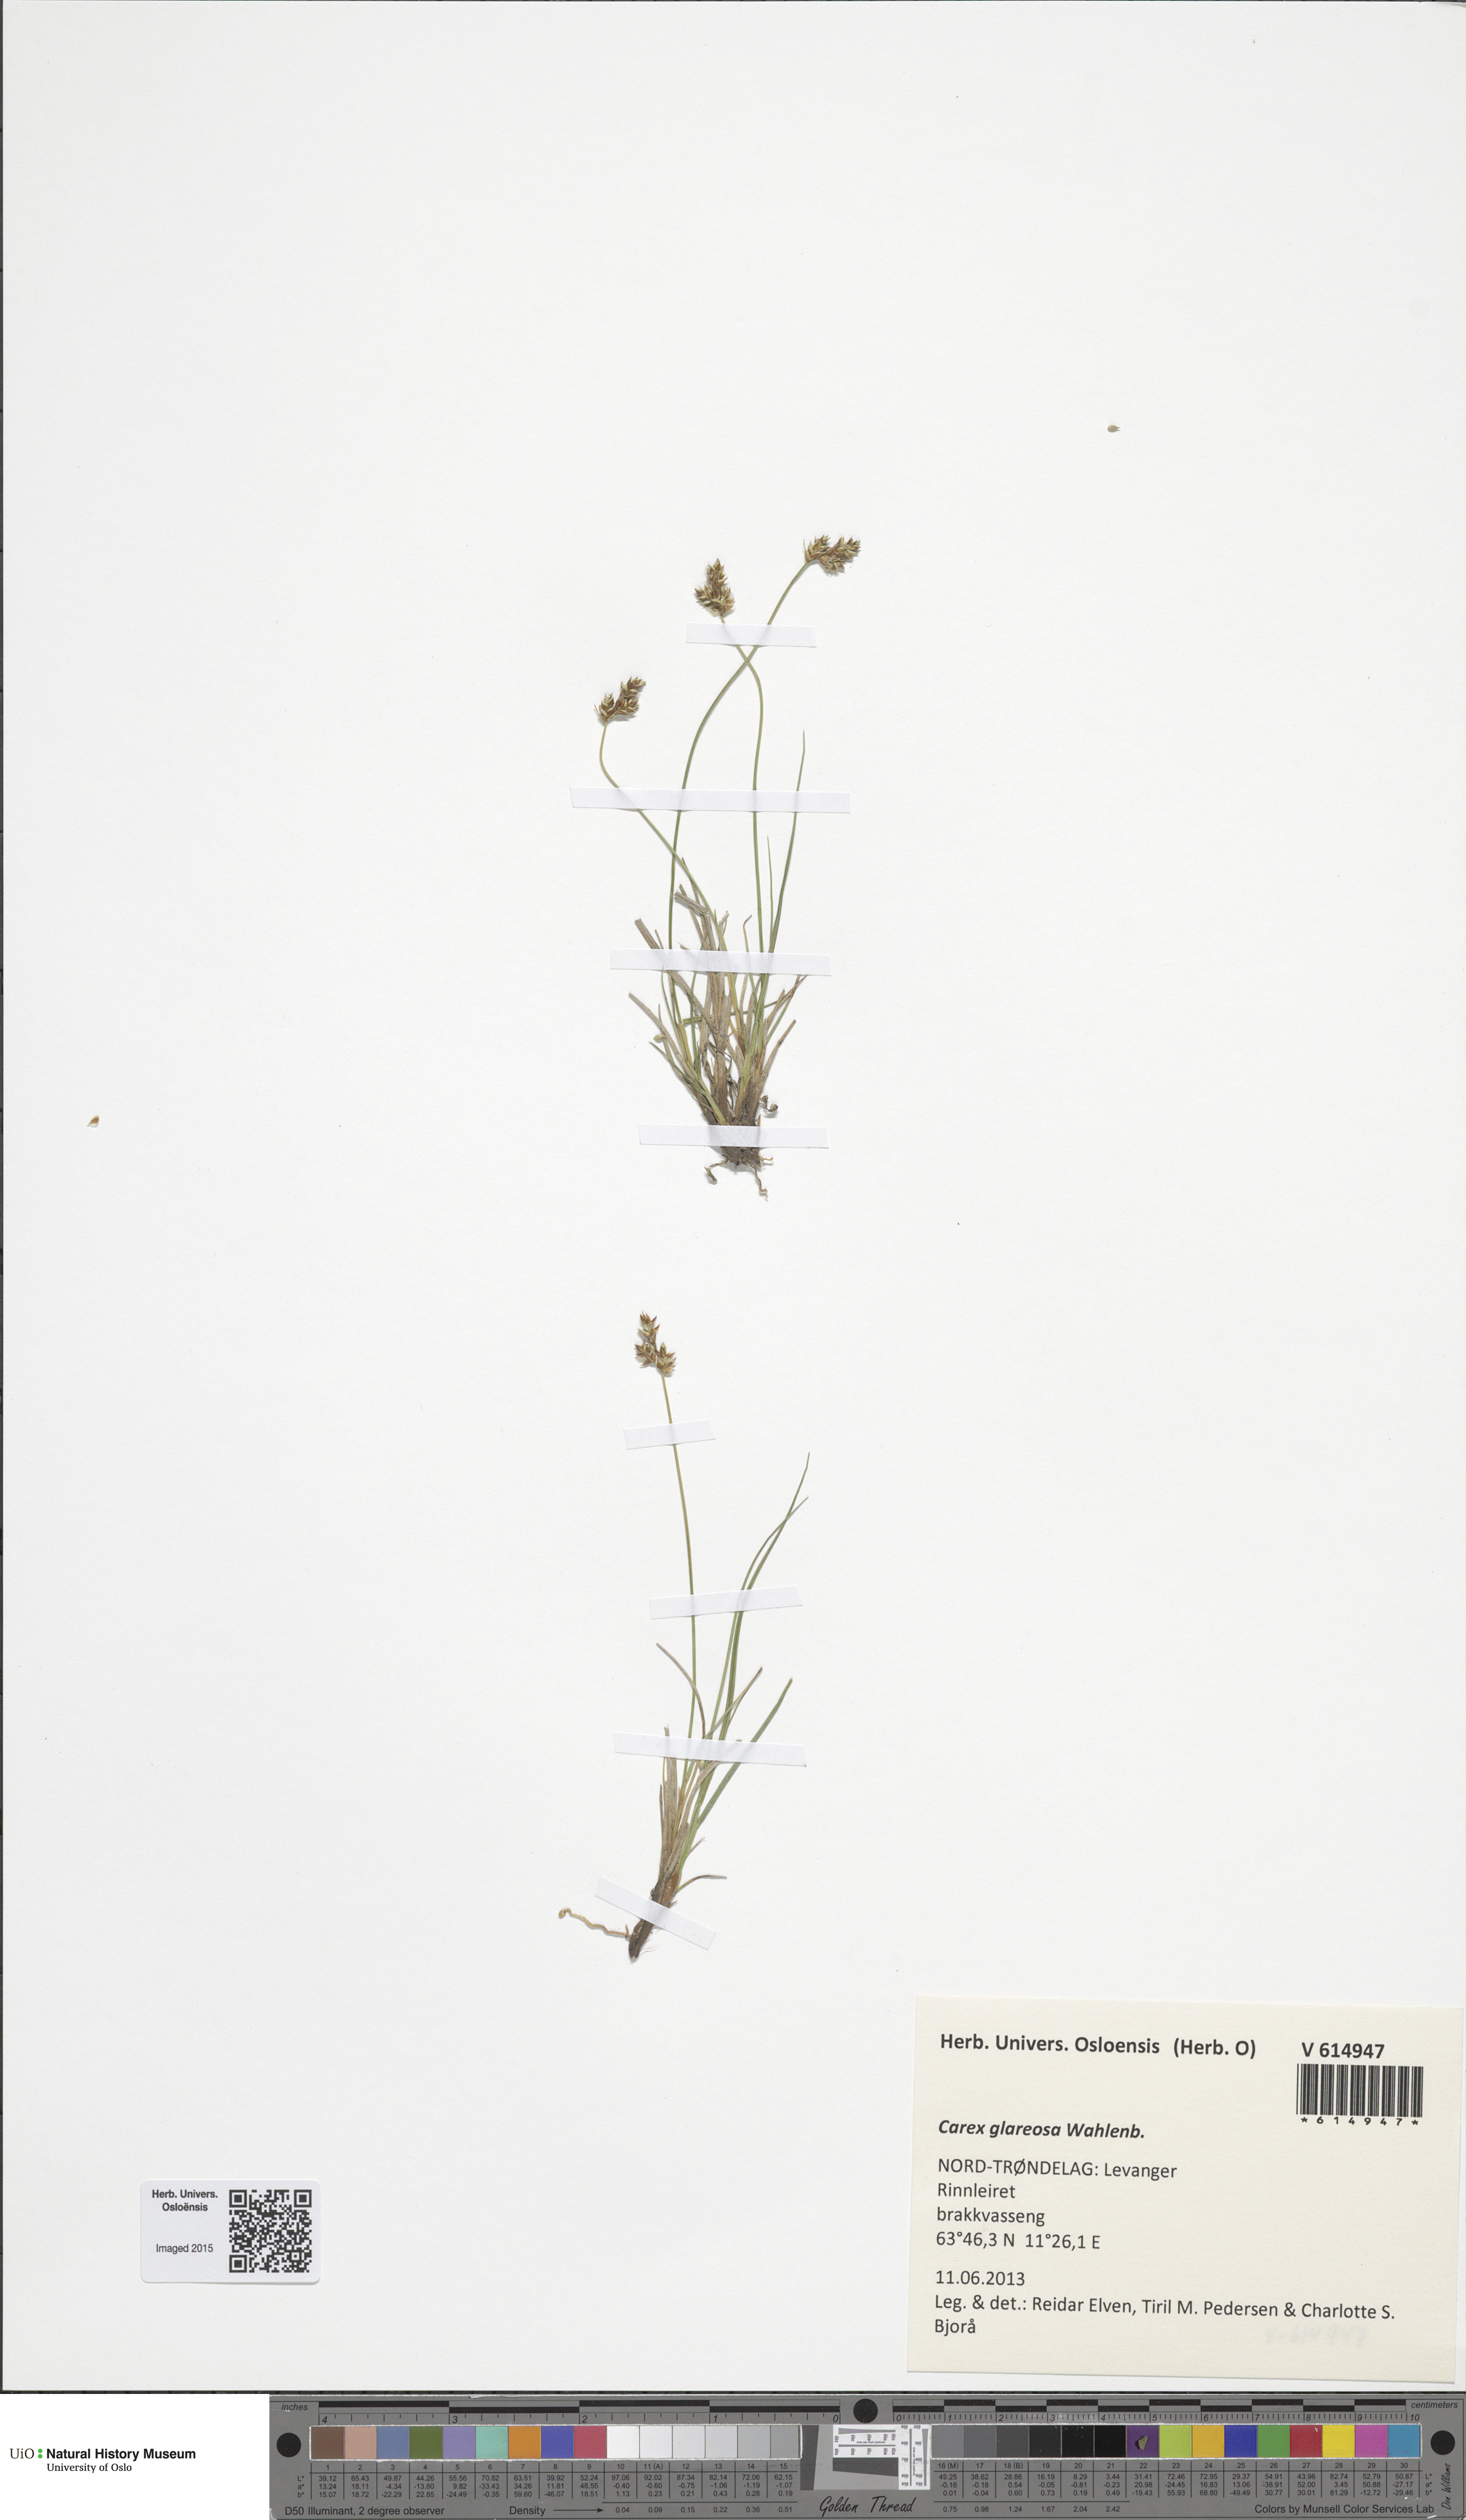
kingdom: Plantae
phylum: Tracheophyta
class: Liliopsida
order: Poales
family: Cyperaceae
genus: Carex
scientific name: Carex glareosa
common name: Clustered sedge
